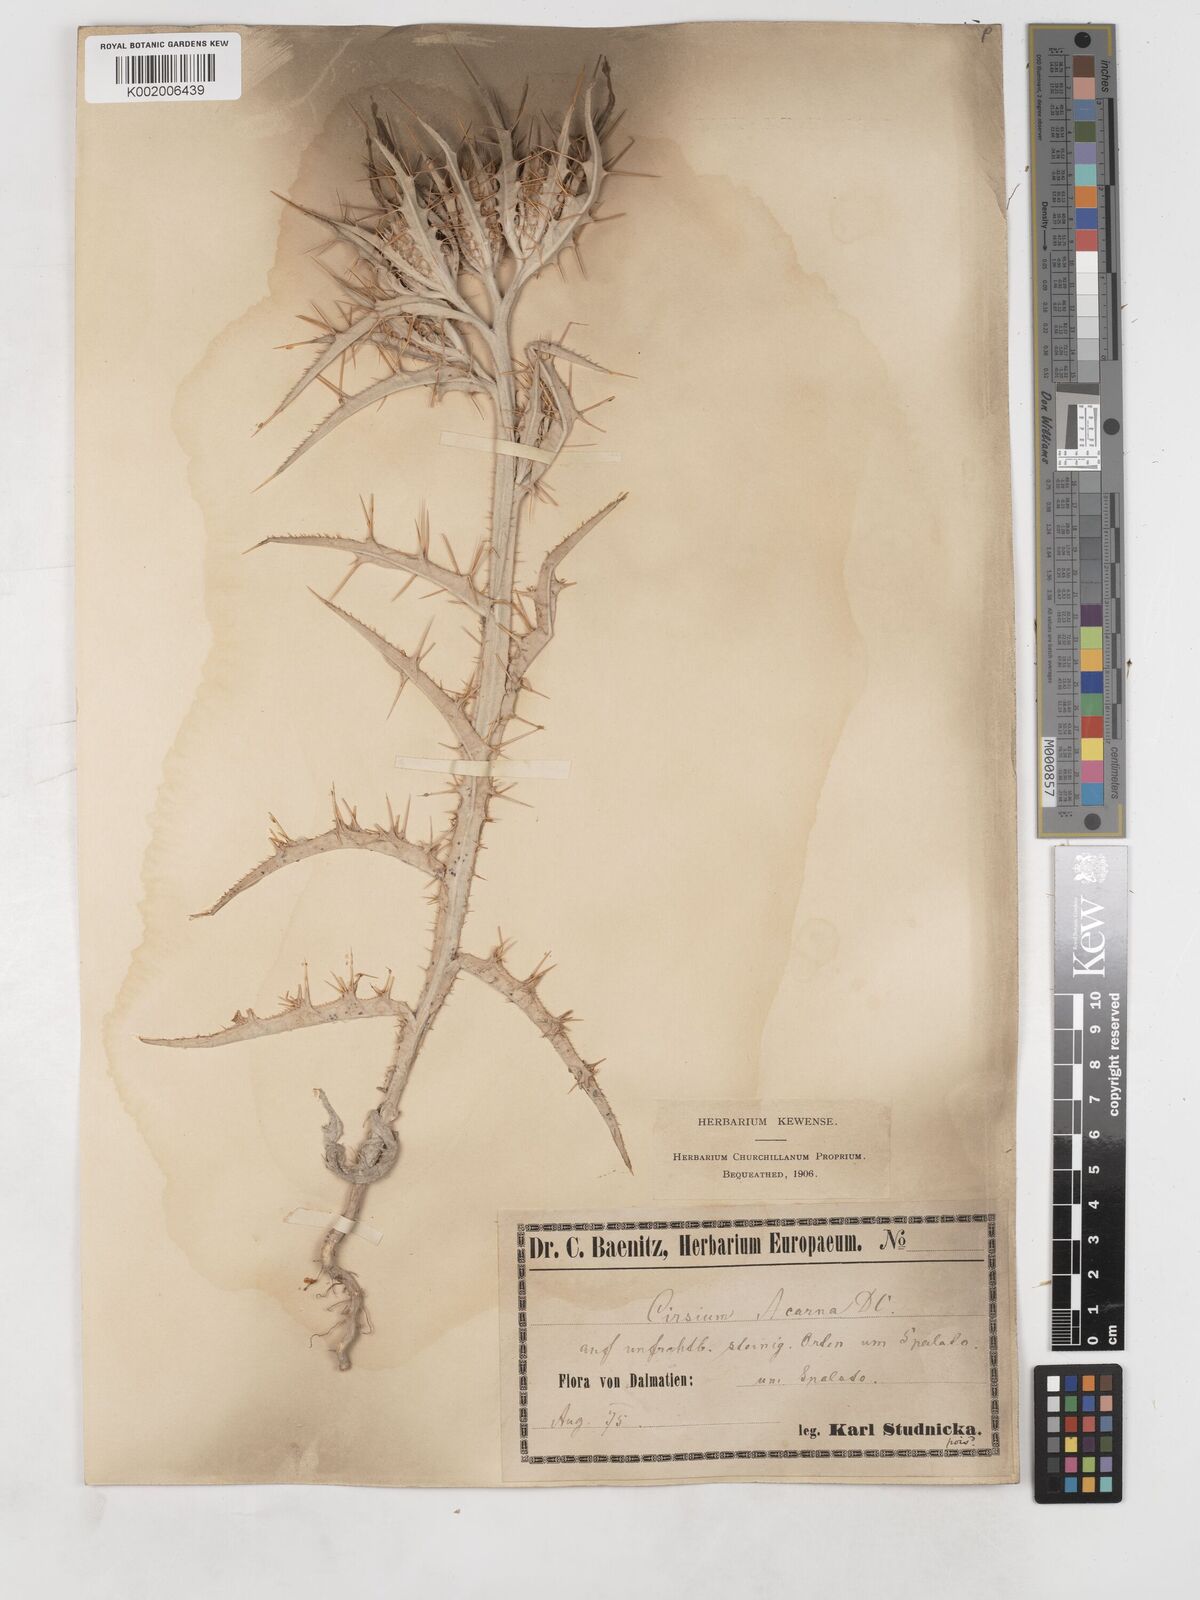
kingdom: Plantae
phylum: Tracheophyta
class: Magnoliopsida
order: Asterales
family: Asteraceae
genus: Picnomon
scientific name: Picnomon acarna
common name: Soldier thistle
